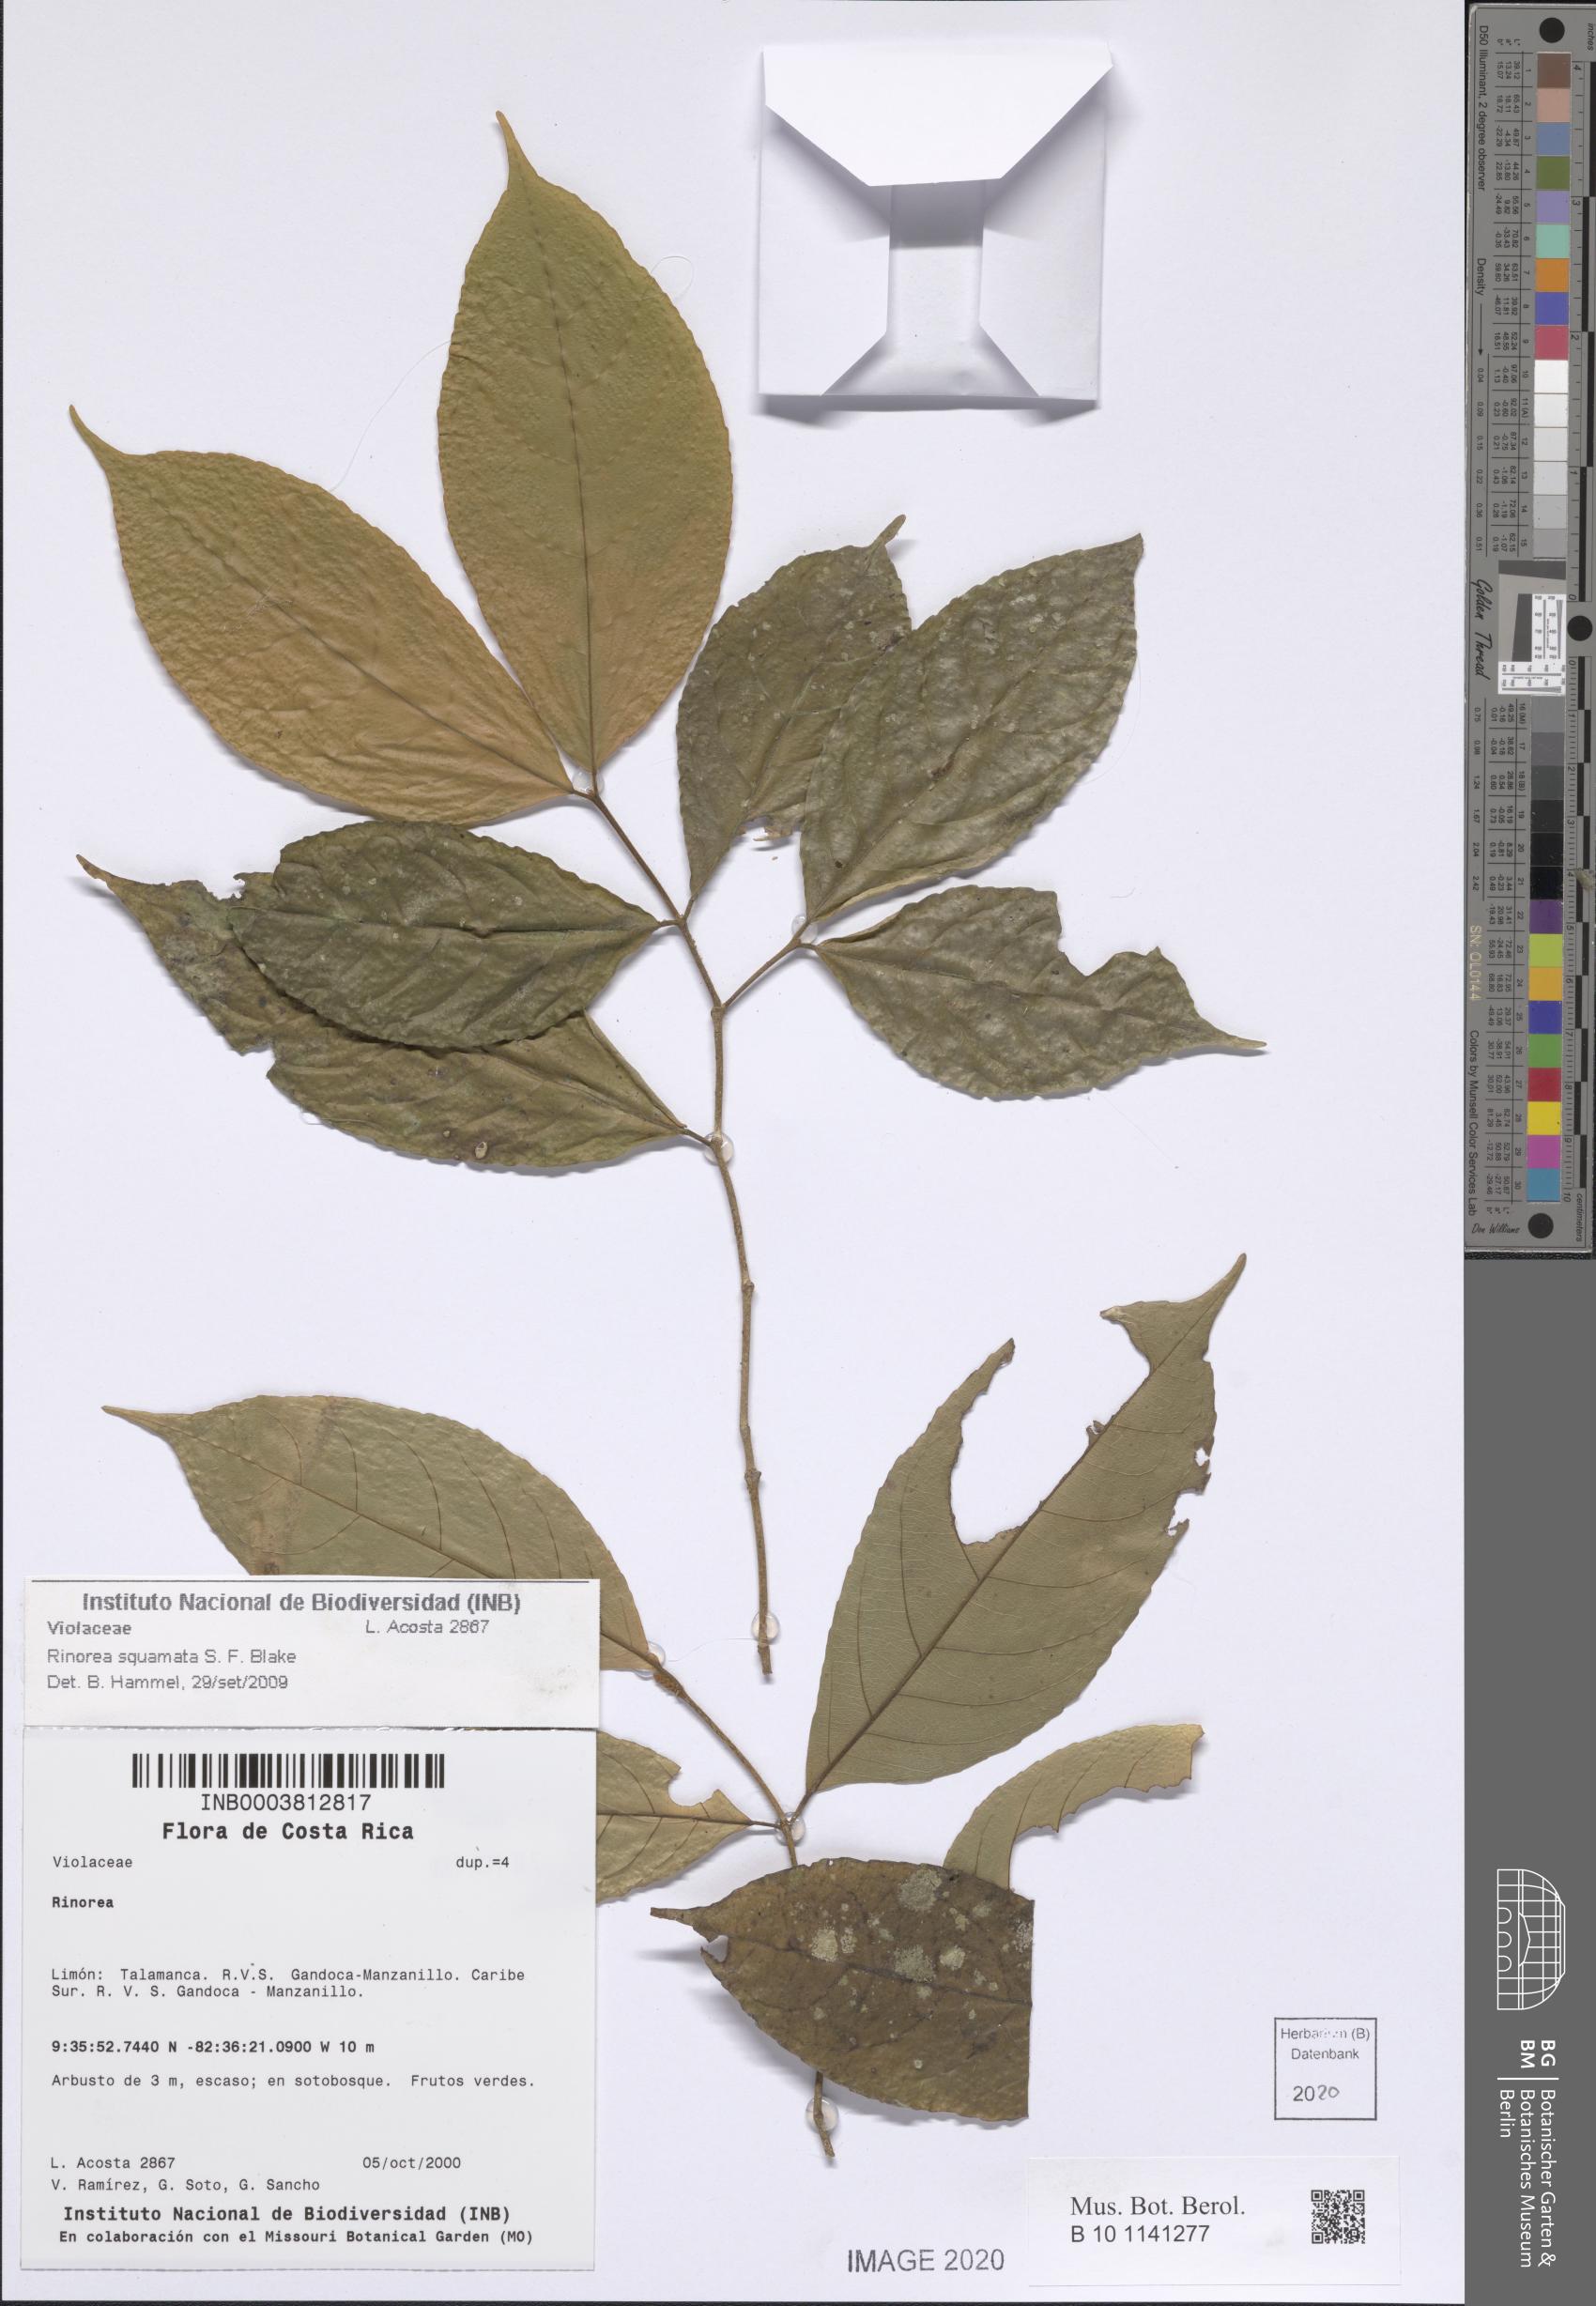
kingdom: Plantae
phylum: Tracheophyta
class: Magnoliopsida
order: Malpighiales
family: Violaceae
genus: Rinorea
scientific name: Rinorea squamata
